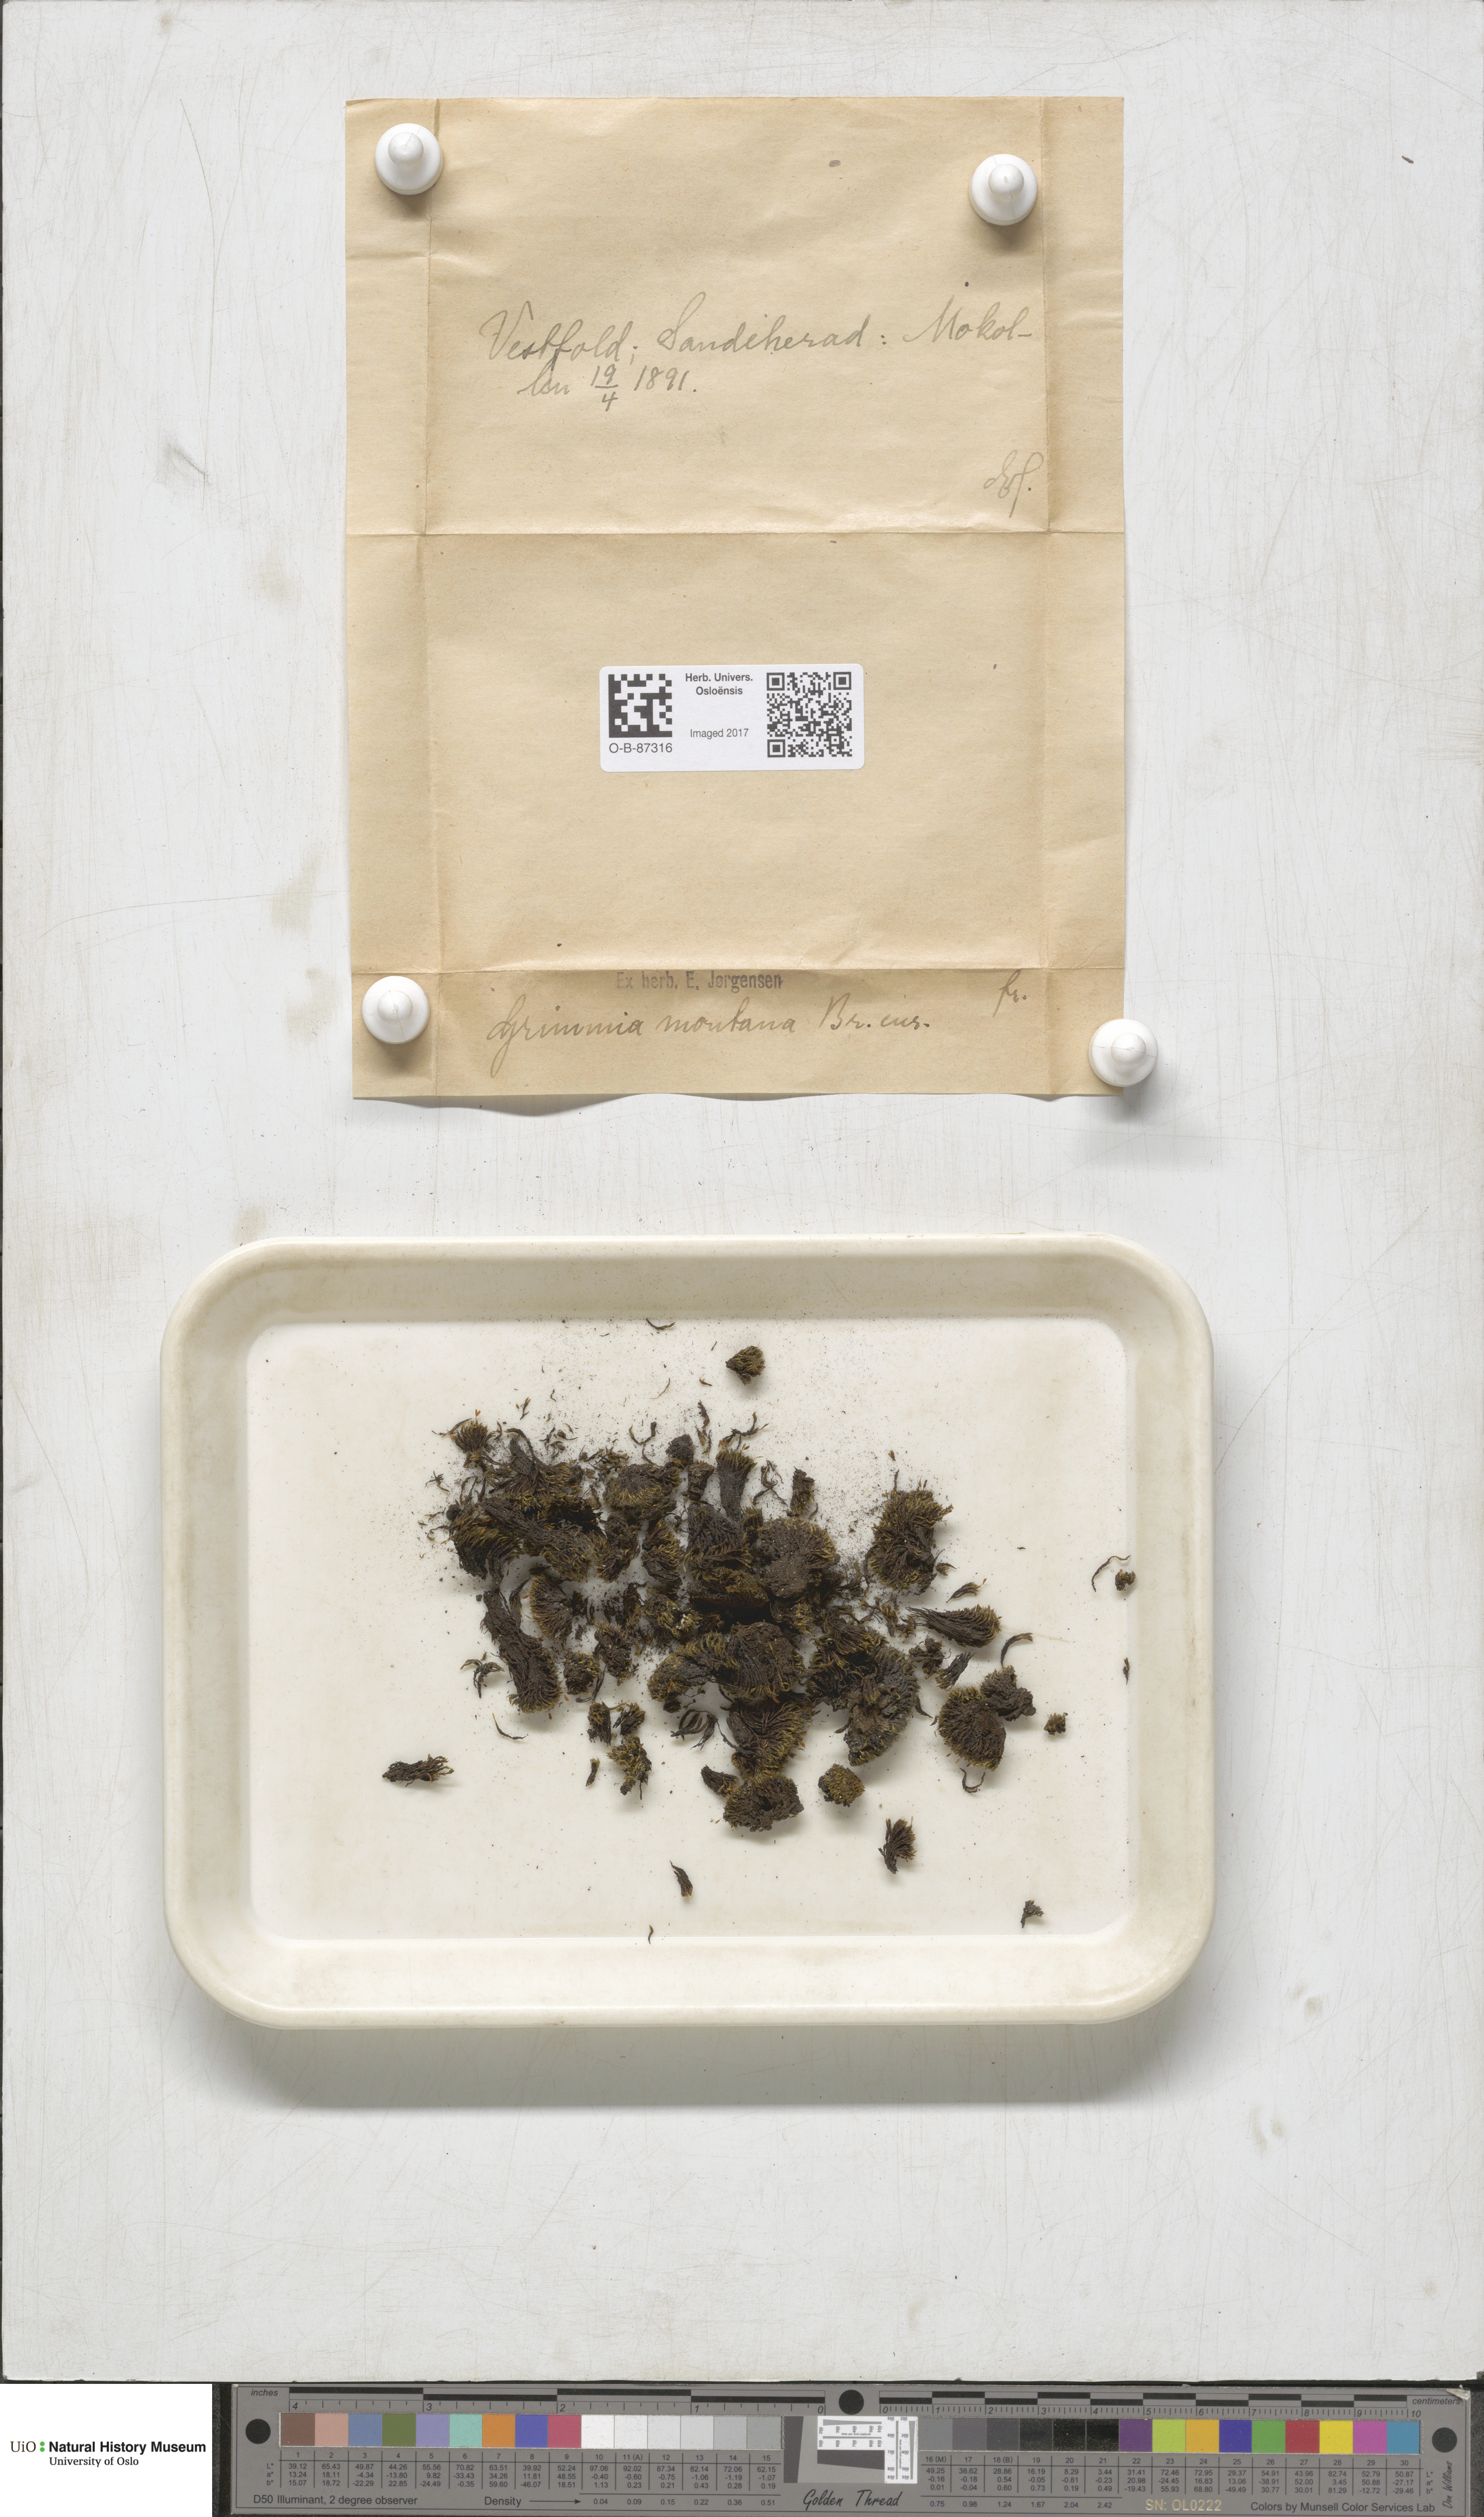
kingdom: Plantae
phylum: Bryophyta
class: Bryopsida
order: Grimmiales
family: Grimmiaceae
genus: Grimmia
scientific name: Grimmia montana
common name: Sun grimmia
